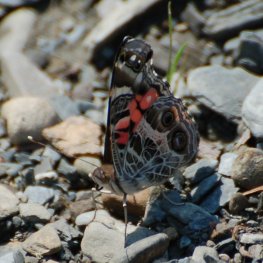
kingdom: Animalia
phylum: Arthropoda
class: Insecta
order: Lepidoptera
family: Nymphalidae
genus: Vanessa
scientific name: Vanessa virginiensis
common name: American Lady
